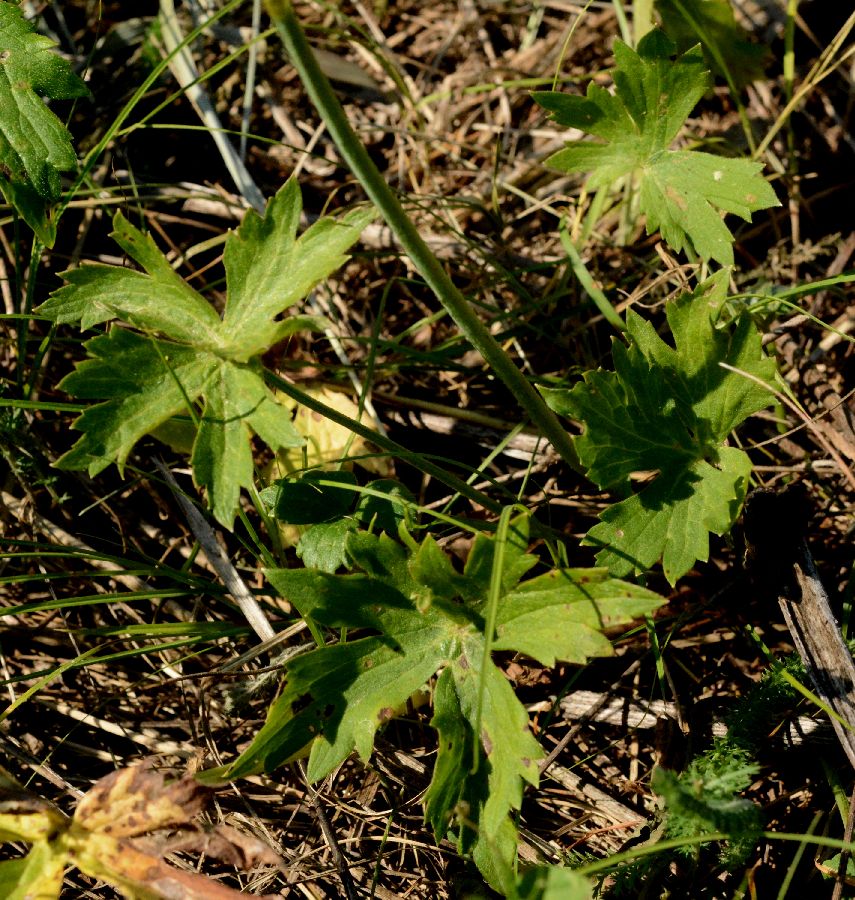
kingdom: Plantae
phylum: Tracheophyta
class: Magnoliopsida
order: Ranunculales
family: Ranunculaceae
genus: Ranunculus
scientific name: Ranunculus japonicus
